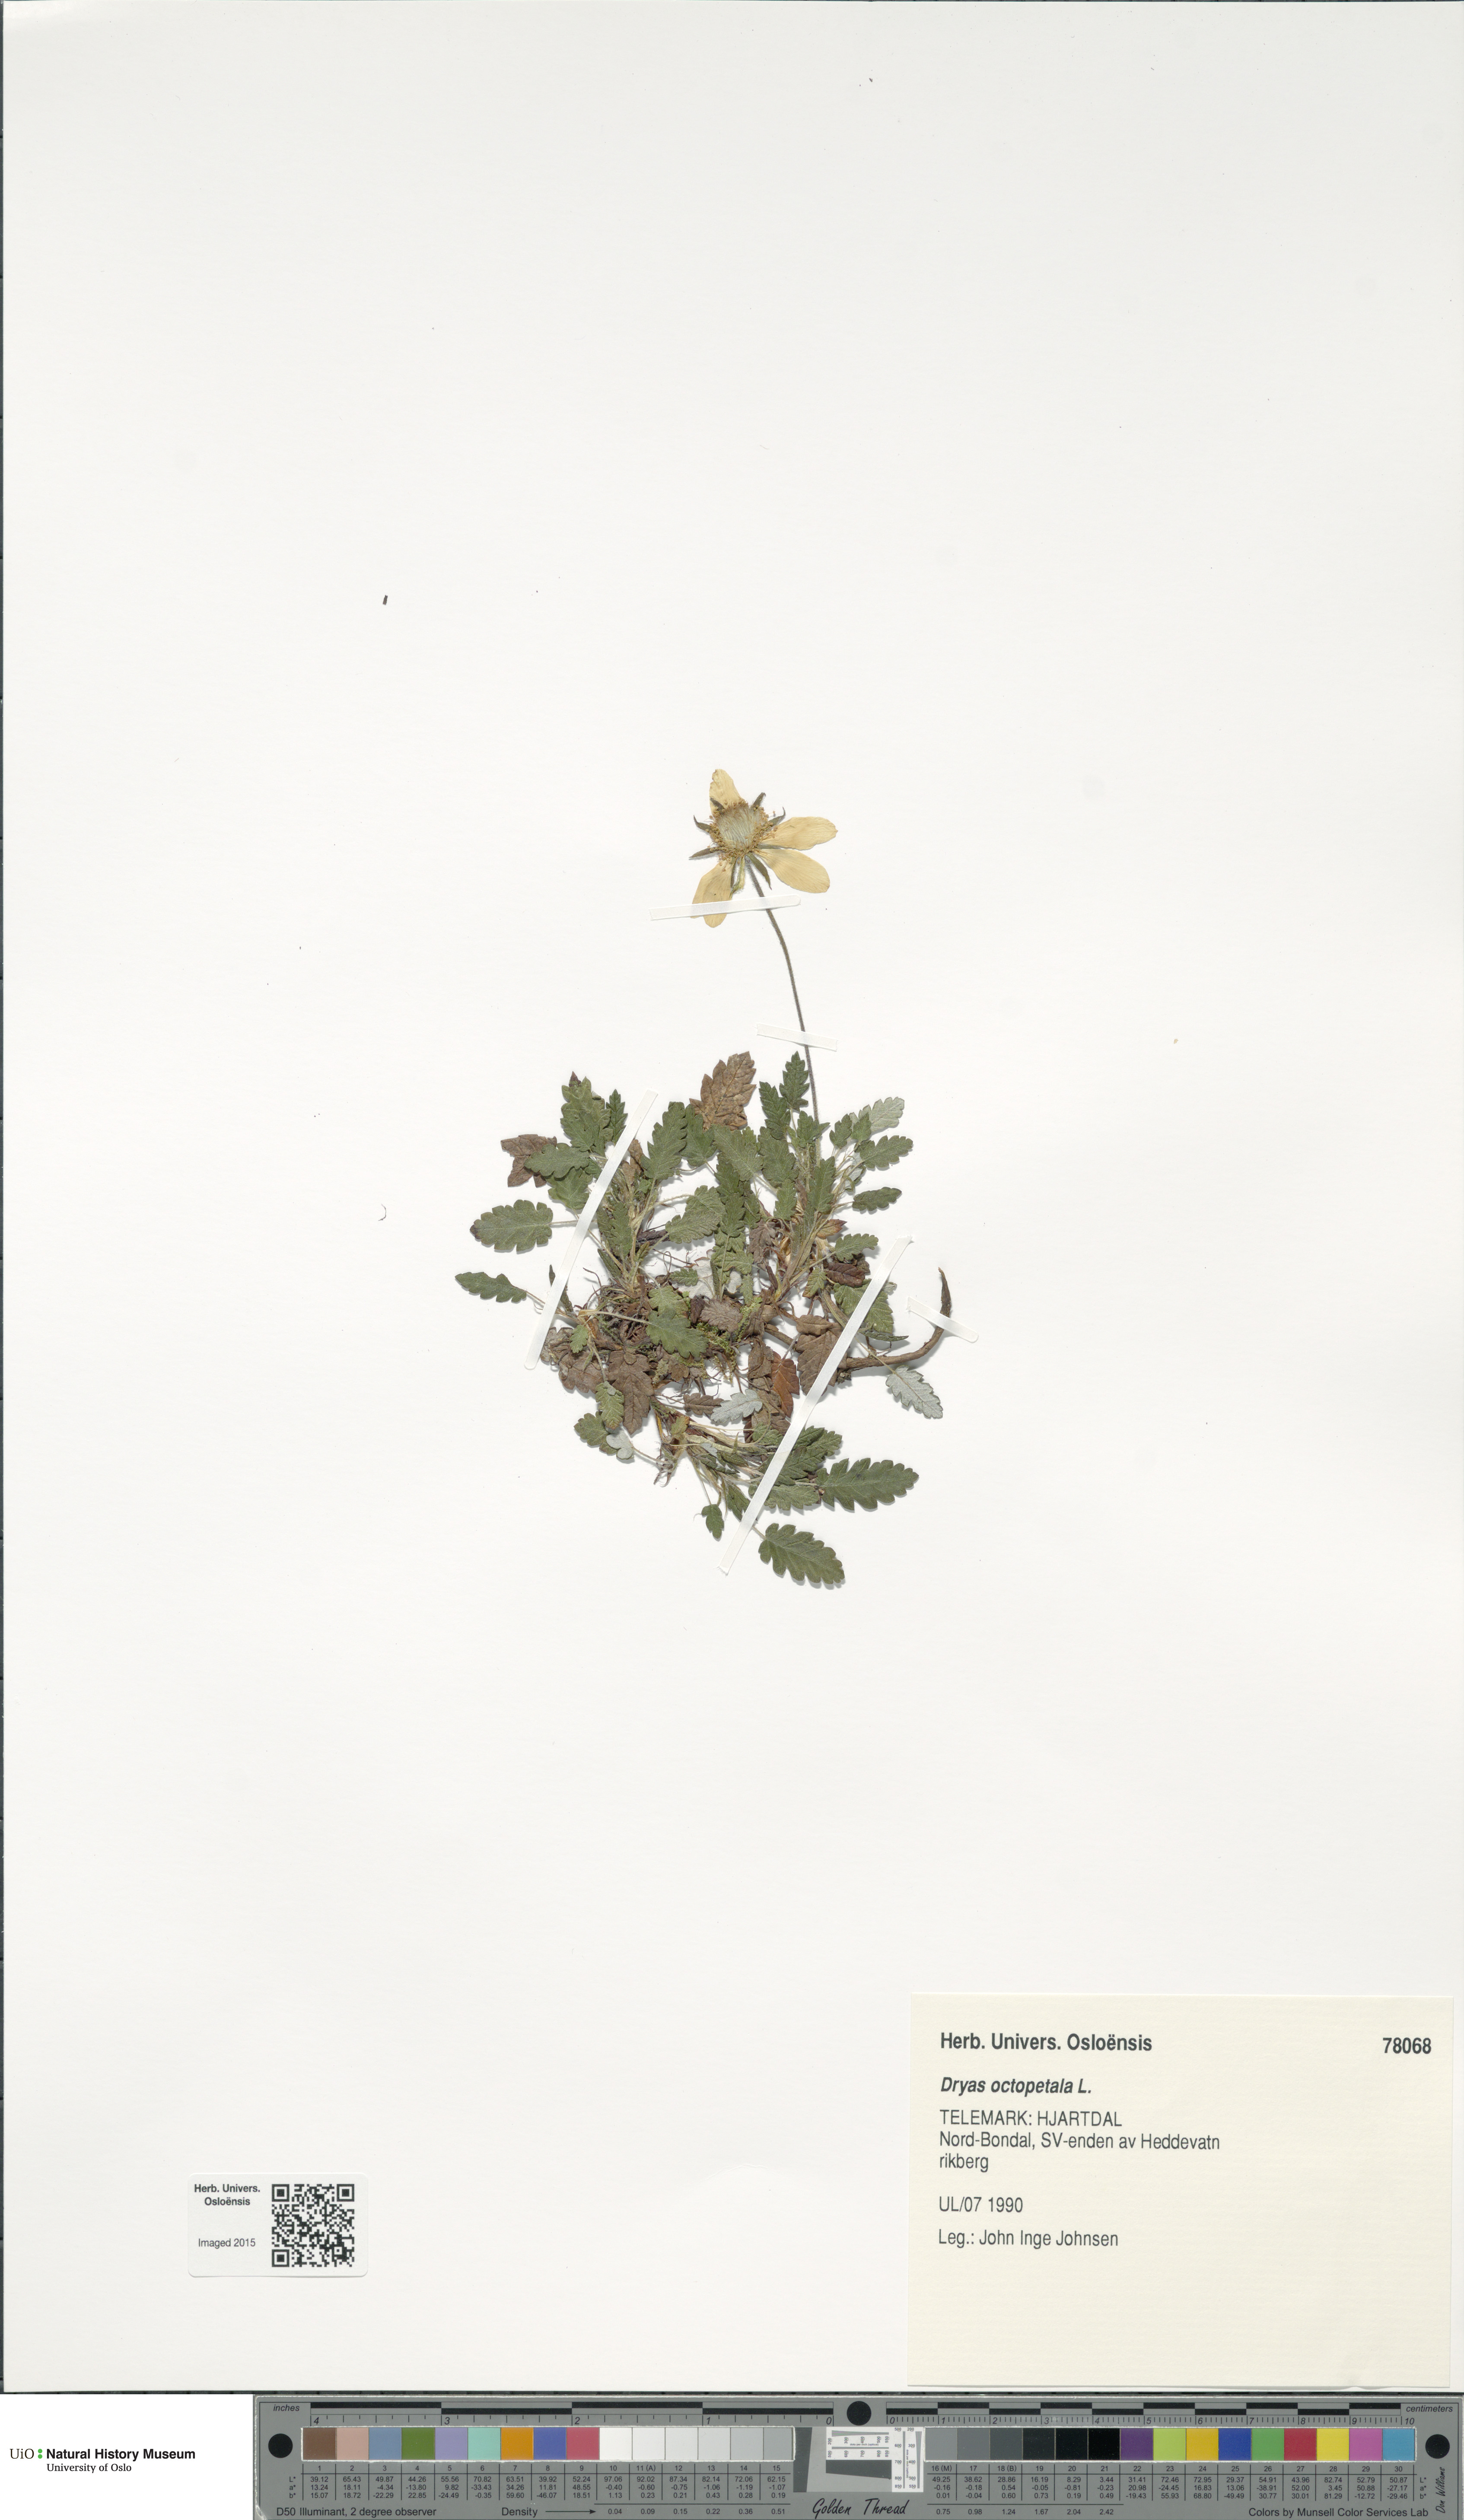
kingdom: Plantae
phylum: Tracheophyta
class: Magnoliopsida
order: Rosales
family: Rosaceae
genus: Dryas
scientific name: Dryas octopetala
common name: Eight-petal mountain-avens
